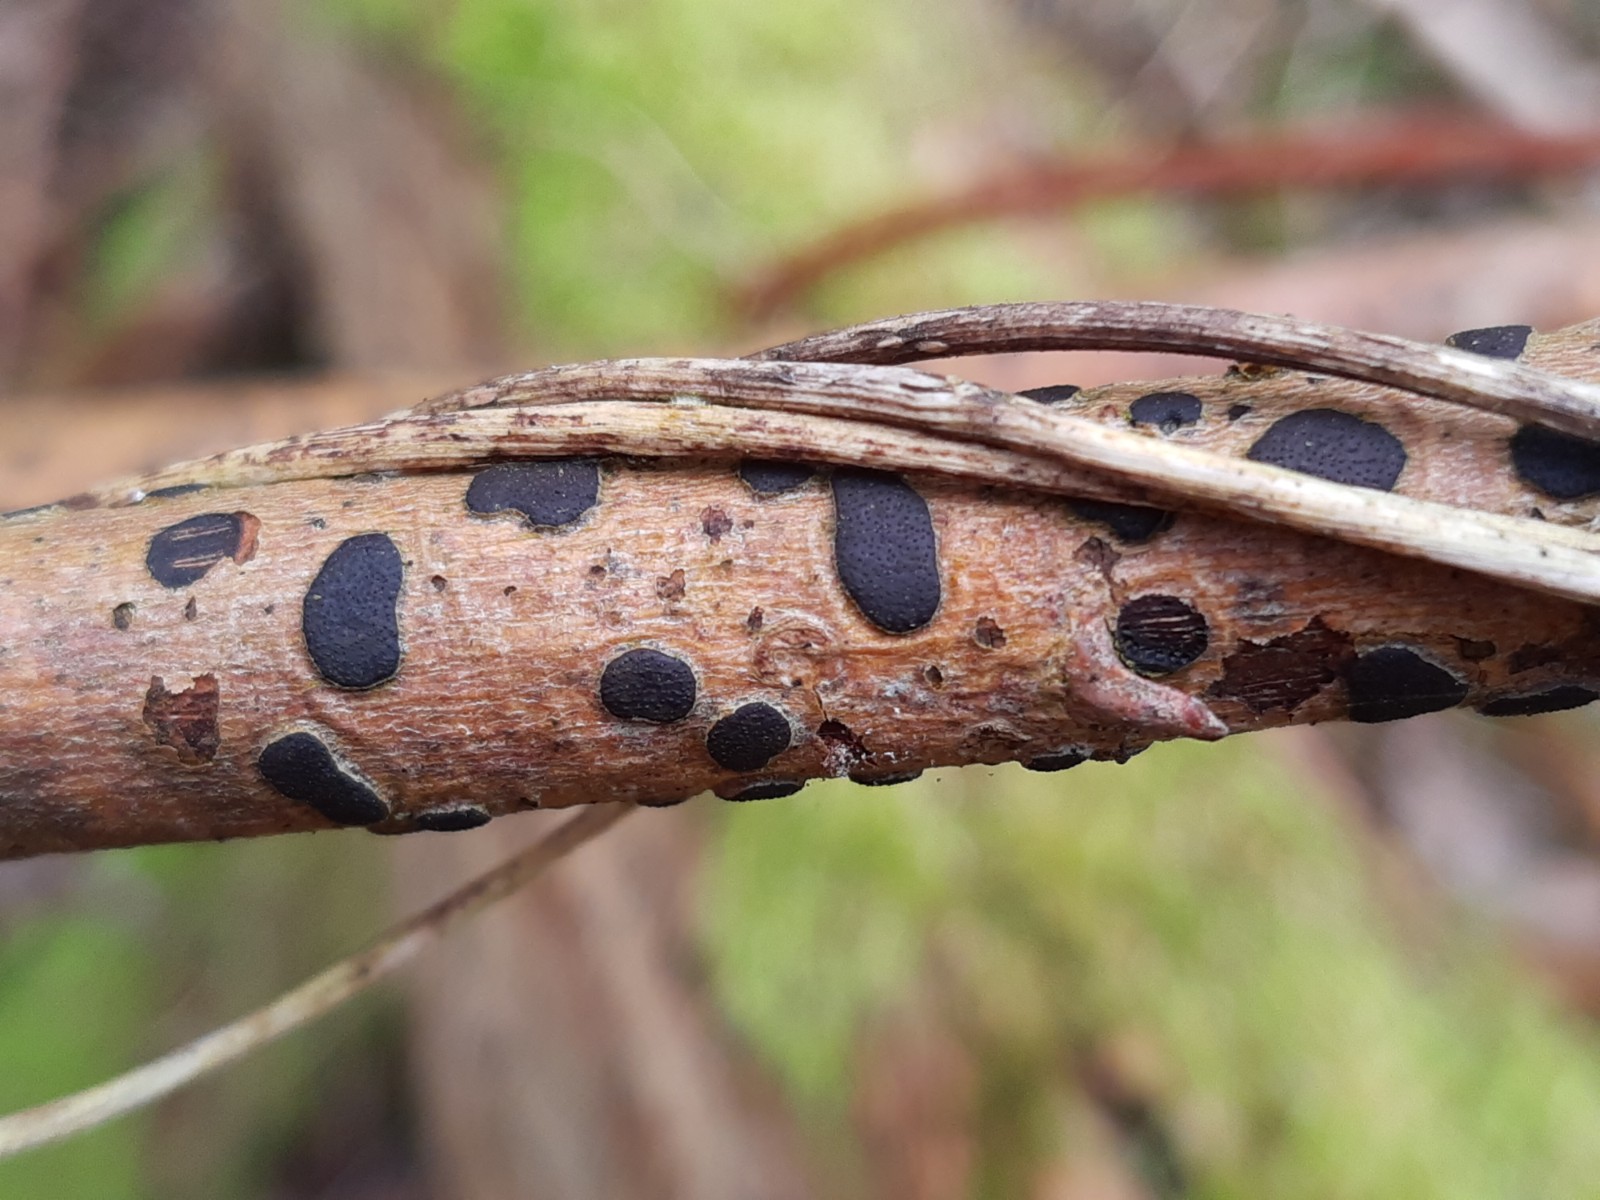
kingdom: Fungi
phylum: Ascomycota
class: Sordariomycetes
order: Xylariales
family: Diatrypaceae
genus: Diatrype
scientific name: Diatrype bullata
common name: pile-kulskorpe
